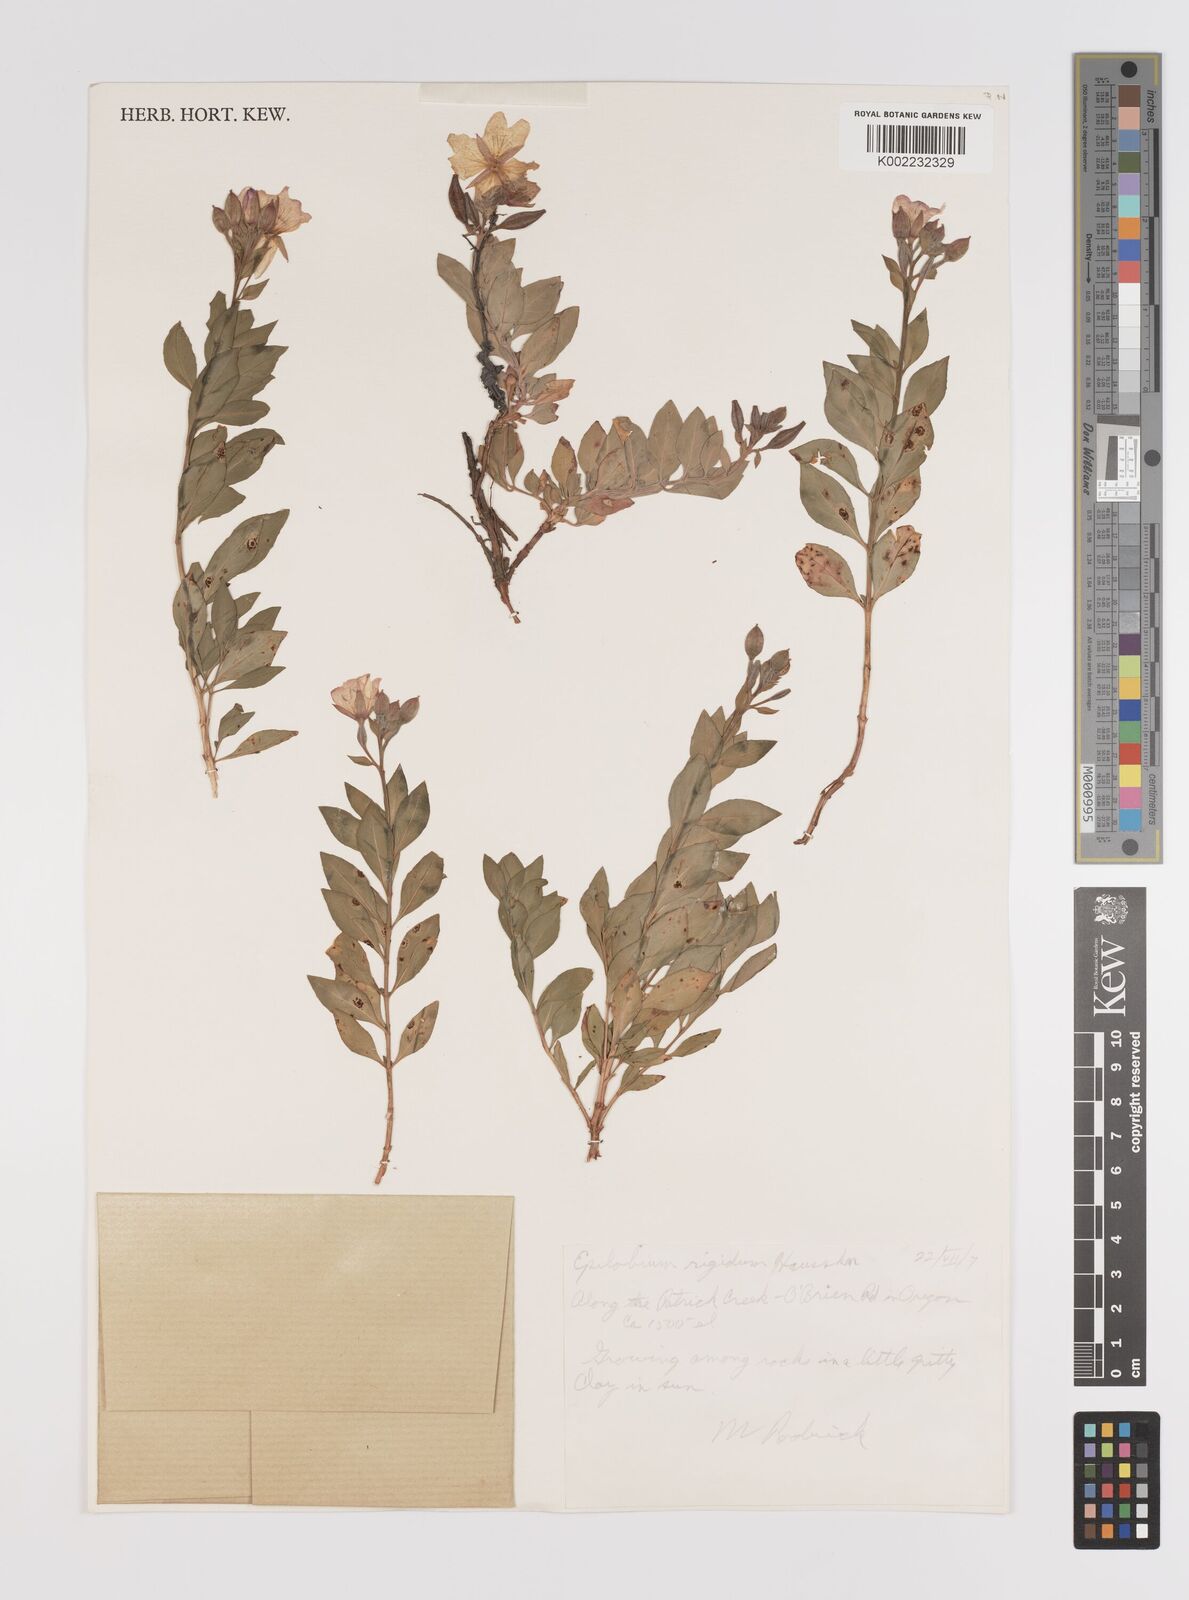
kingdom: Plantae
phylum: Tracheophyta
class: Magnoliopsida
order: Myrtales
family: Onagraceae
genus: Epilobium
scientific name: Epilobium rigidum
